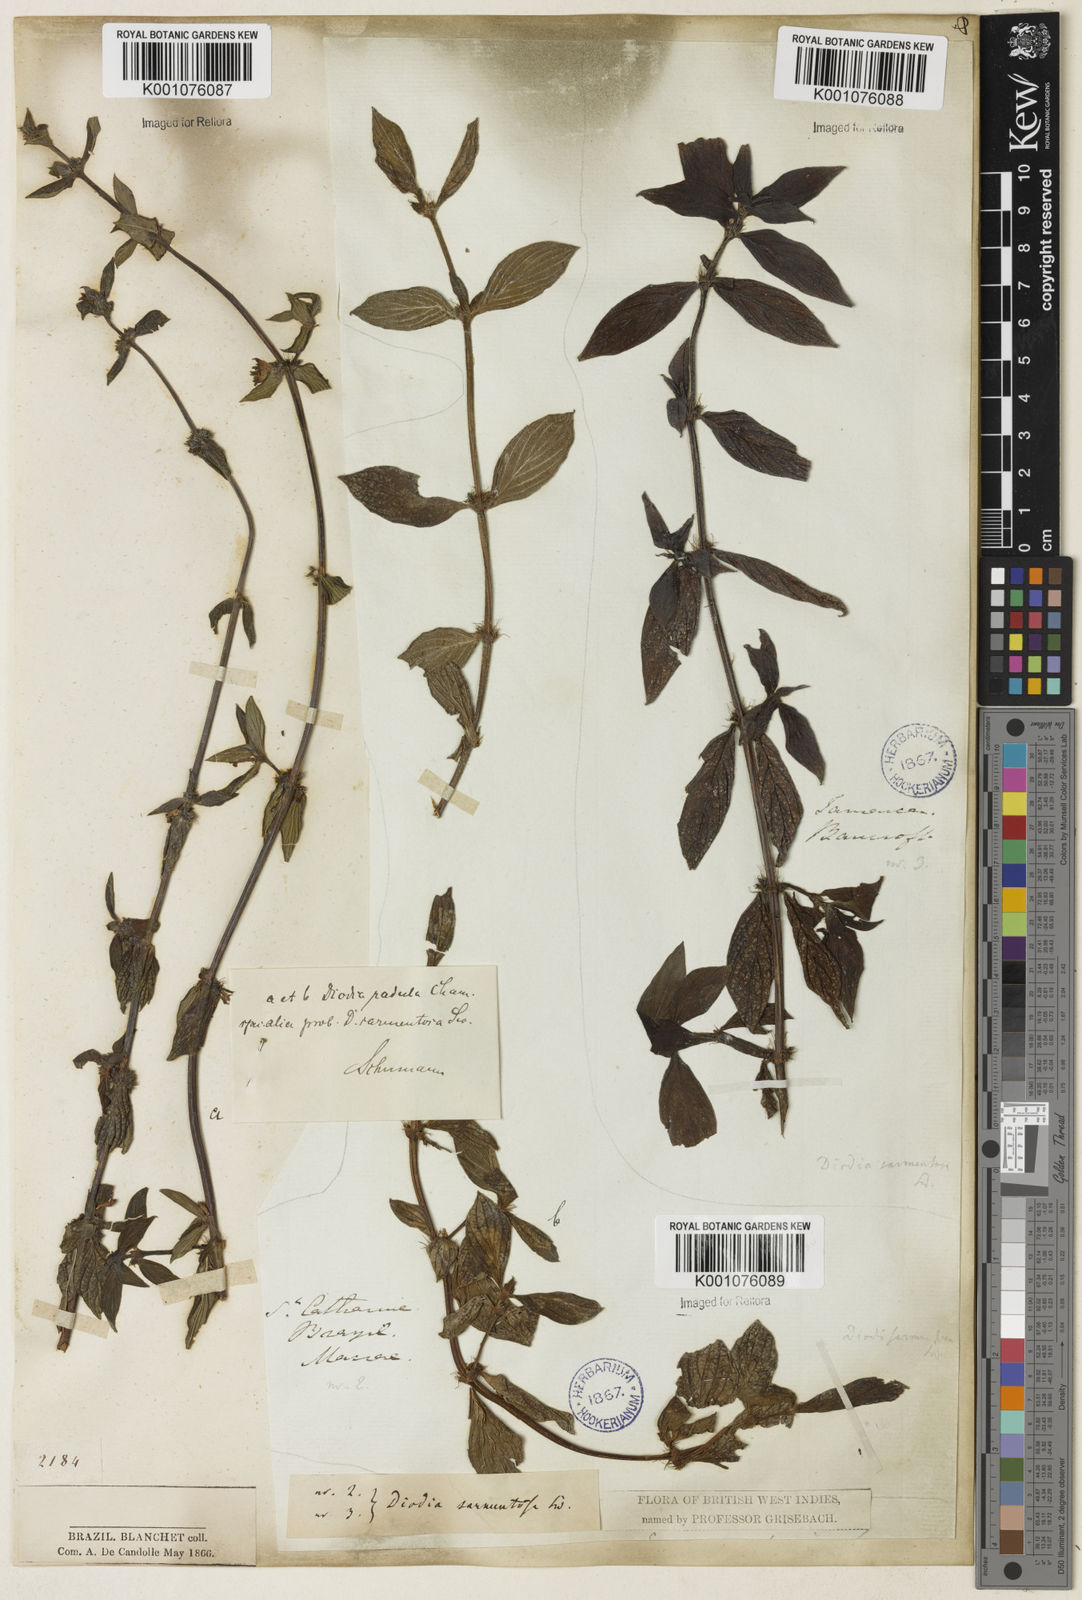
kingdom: Plantae
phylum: Tracheophyta
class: Magnoliopsida
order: Gentianales
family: Rubiaceae
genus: Hexasepalum
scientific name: Hexasepalum radulum
